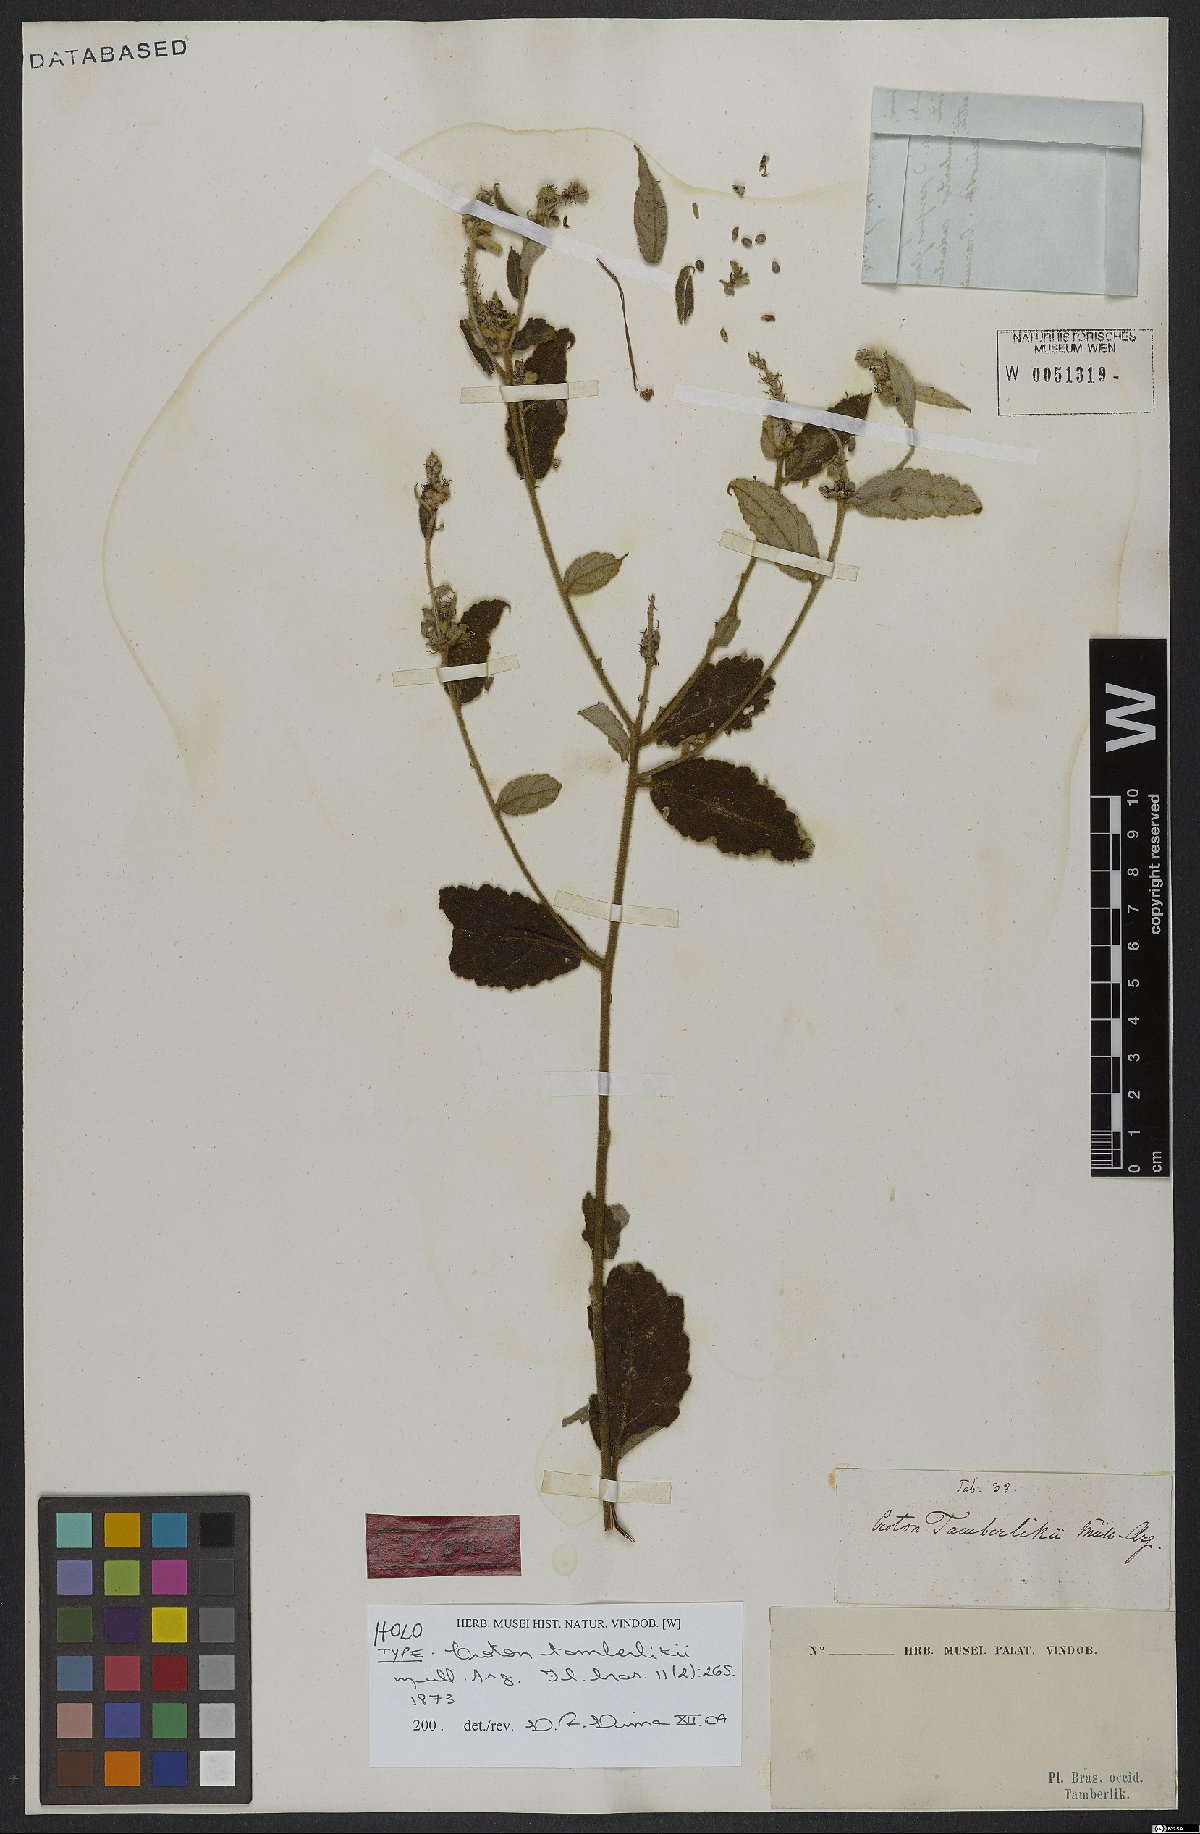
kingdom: Plantae
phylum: Tracheophyta
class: Magnoliopsida
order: Malpighiales
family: Euphorbiaceae
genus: Croton
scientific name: Croton spica
